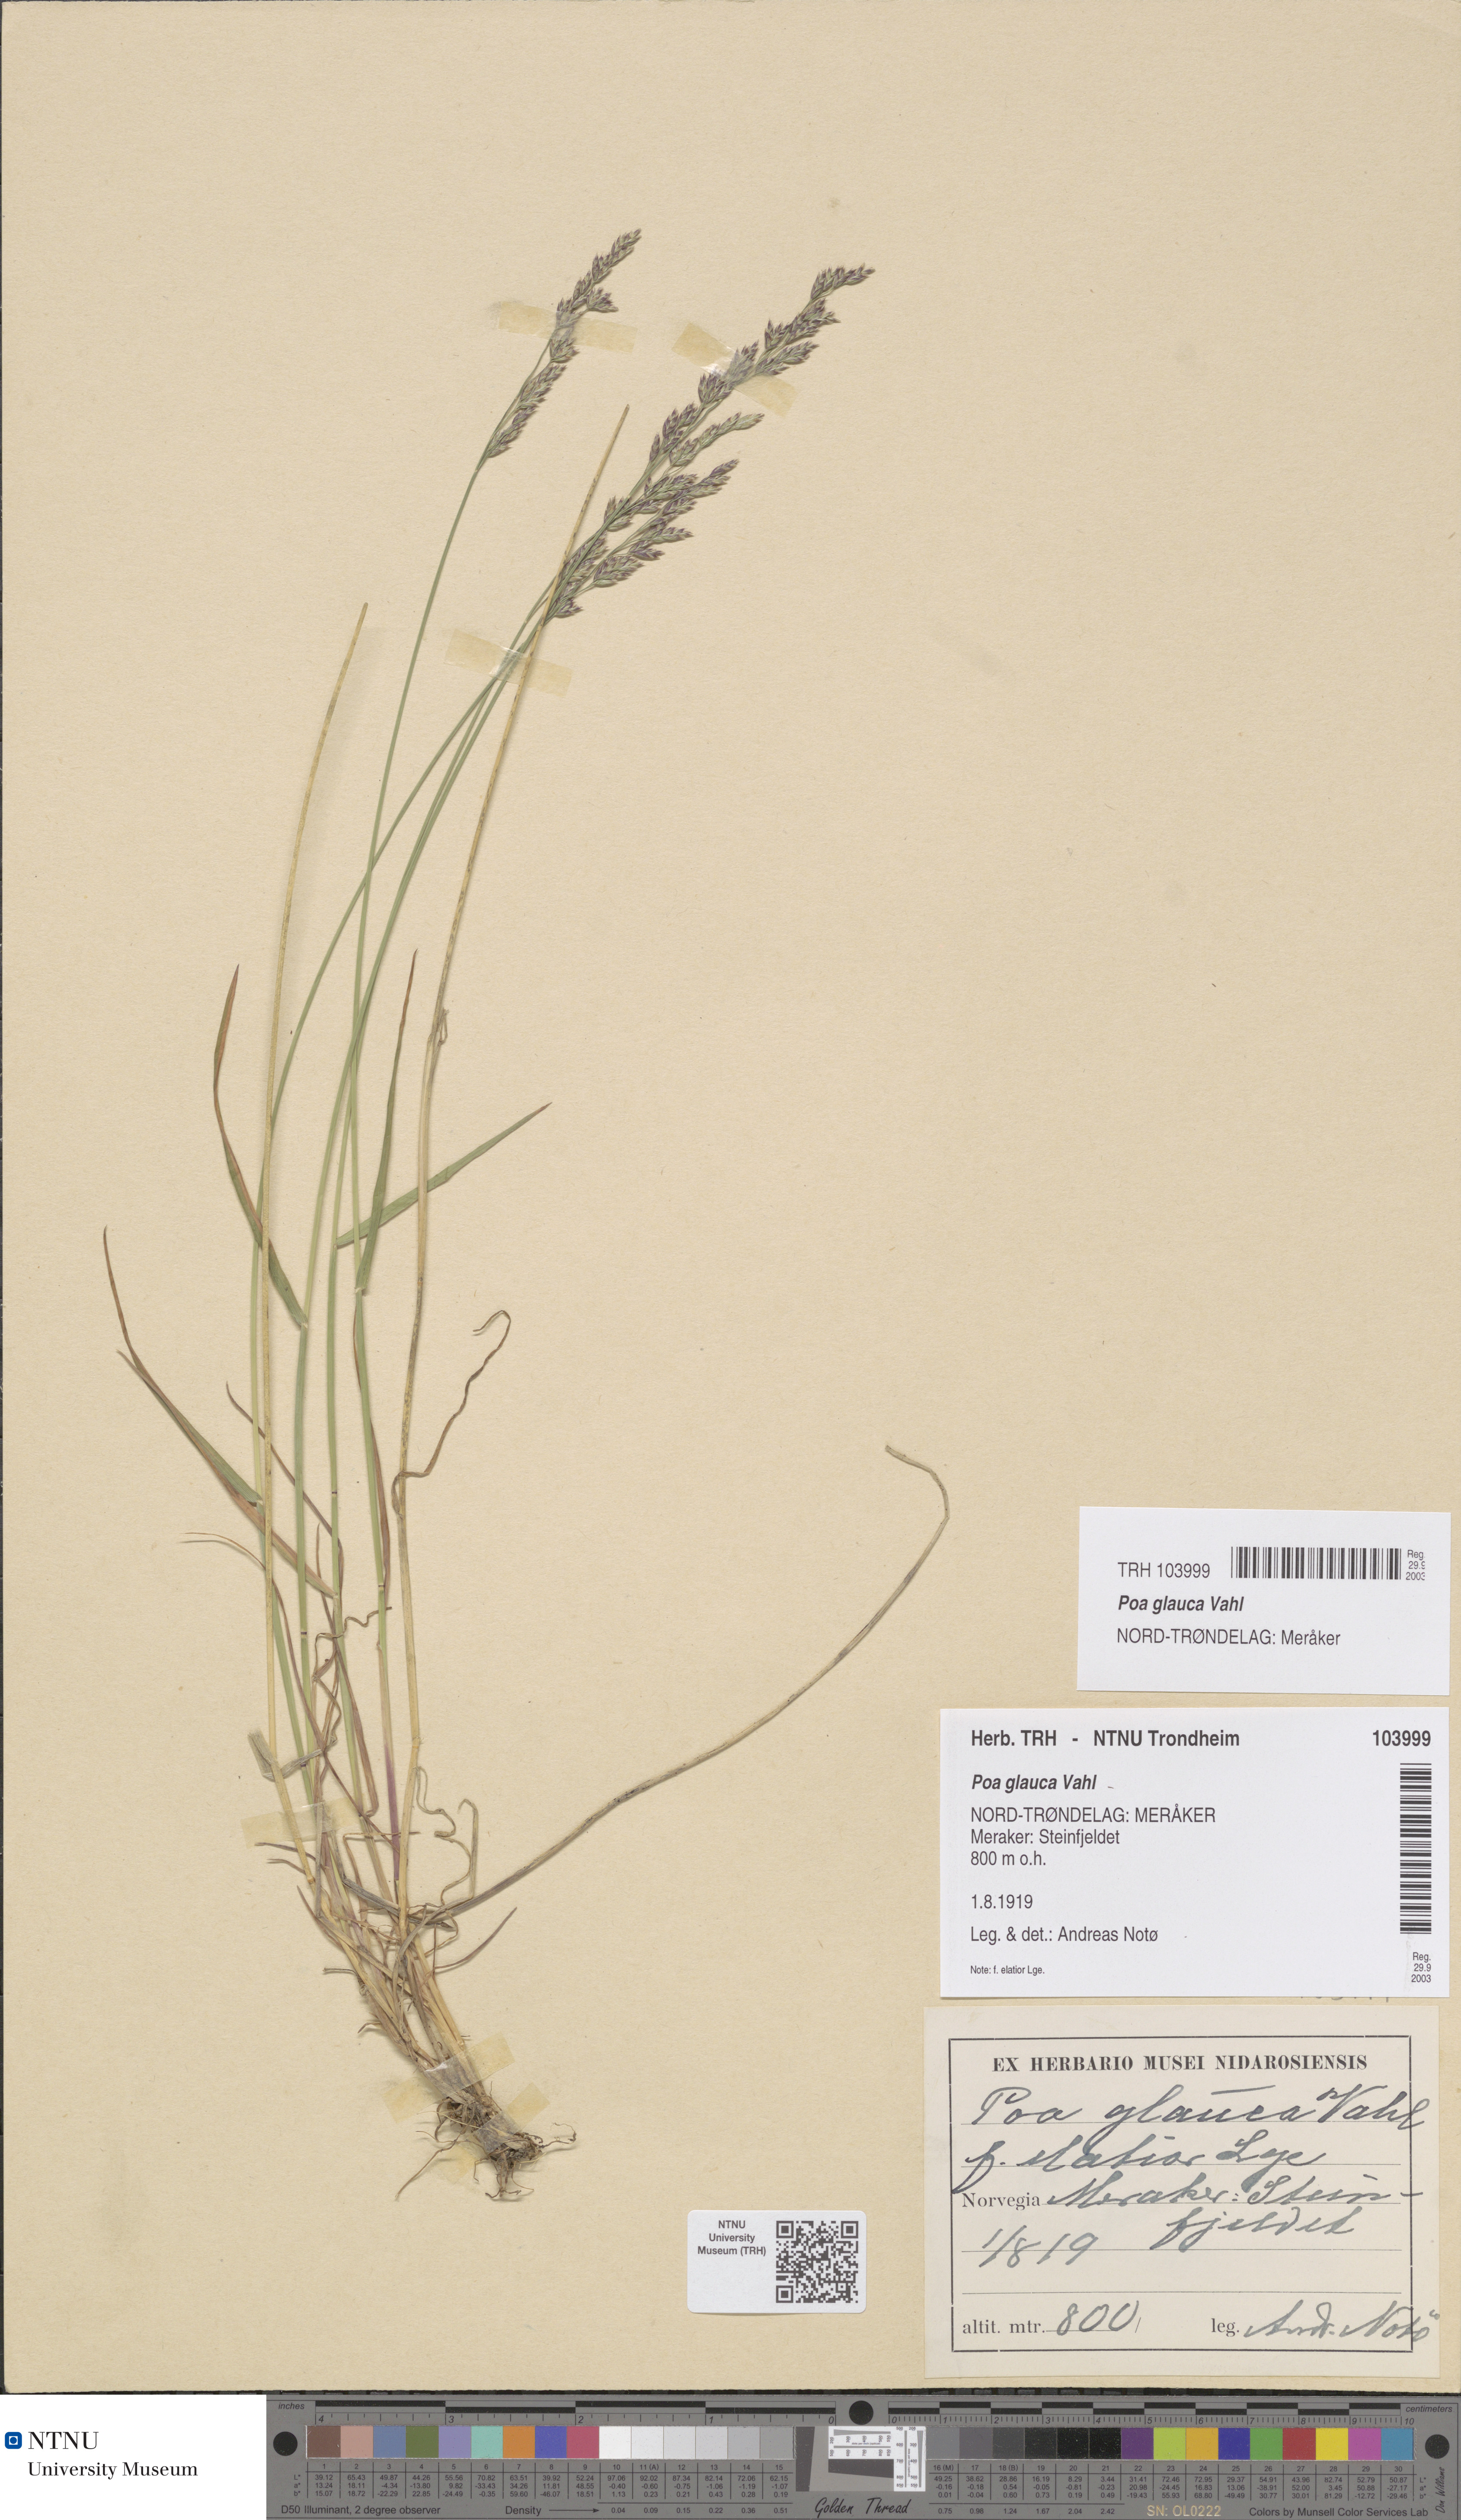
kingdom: Plantae
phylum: Tracheophyta
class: Liliopsida
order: Poales
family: Poaceae
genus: Poa
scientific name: Poa glauca
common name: Glaucous bluegrass
